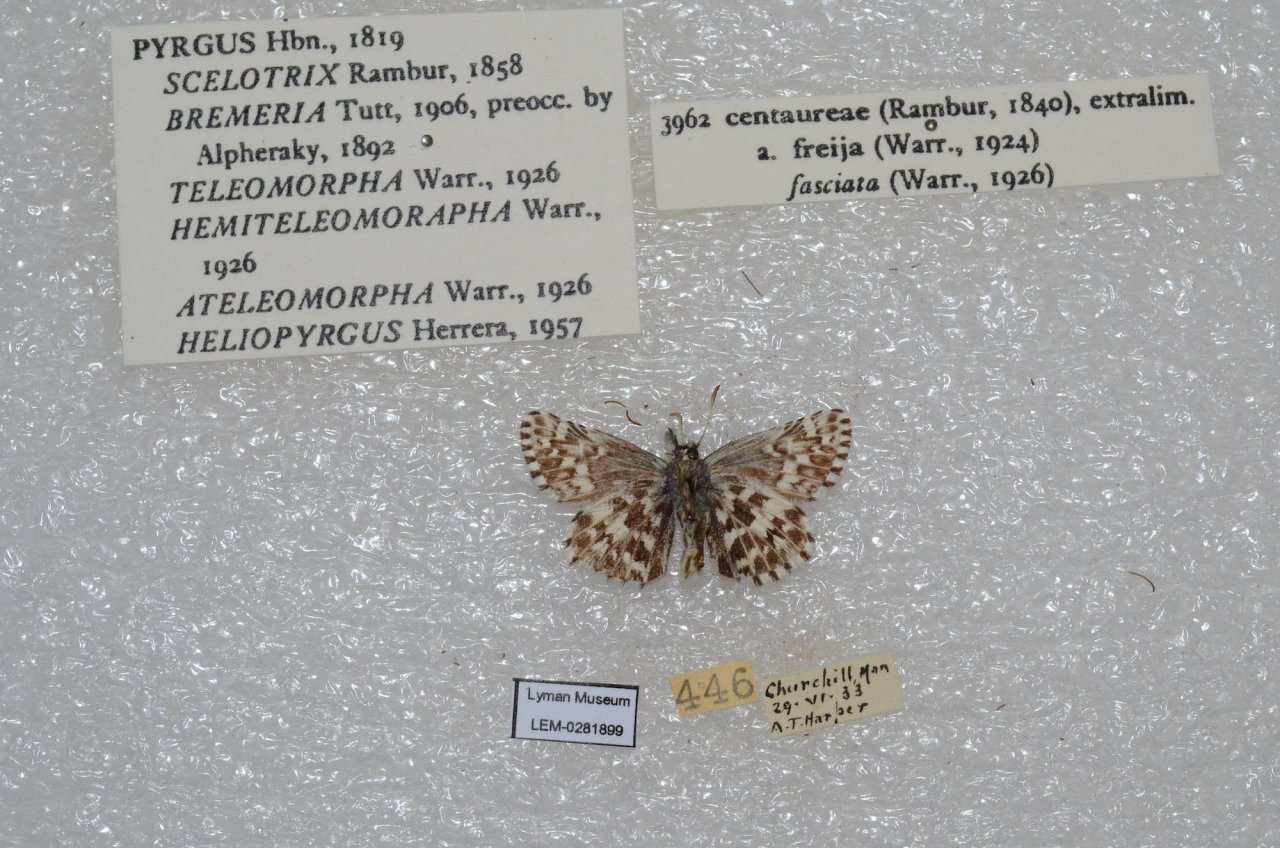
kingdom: Animalia
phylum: Arthropoda
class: Insecta
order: Lepidoptera
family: Hesperiidae
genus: Pyrgus
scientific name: Pyrgus centaureae
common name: Grizzled Skipper
